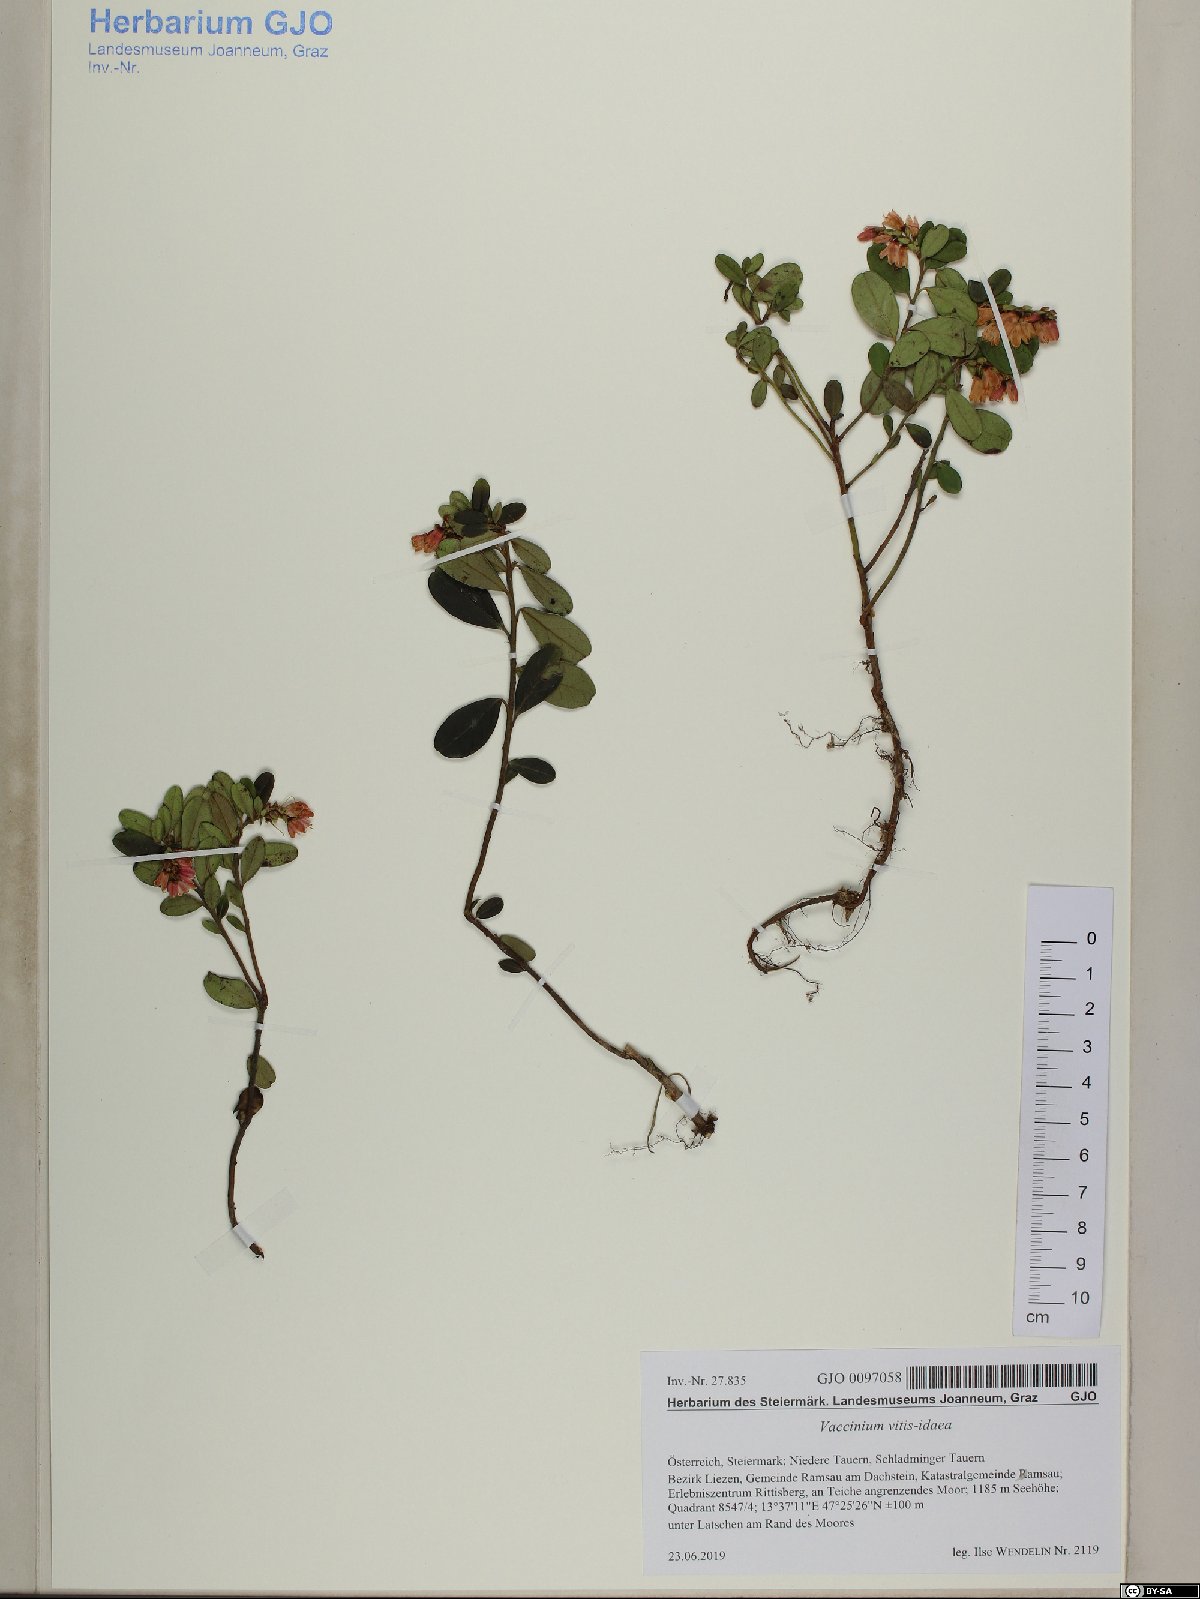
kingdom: Plantae
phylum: Tracheophyta
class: Magnoliopsida
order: Ericales
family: Ericaceae
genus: Vaccinium
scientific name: Vaccinium vitis-idaea
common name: Cowberry
